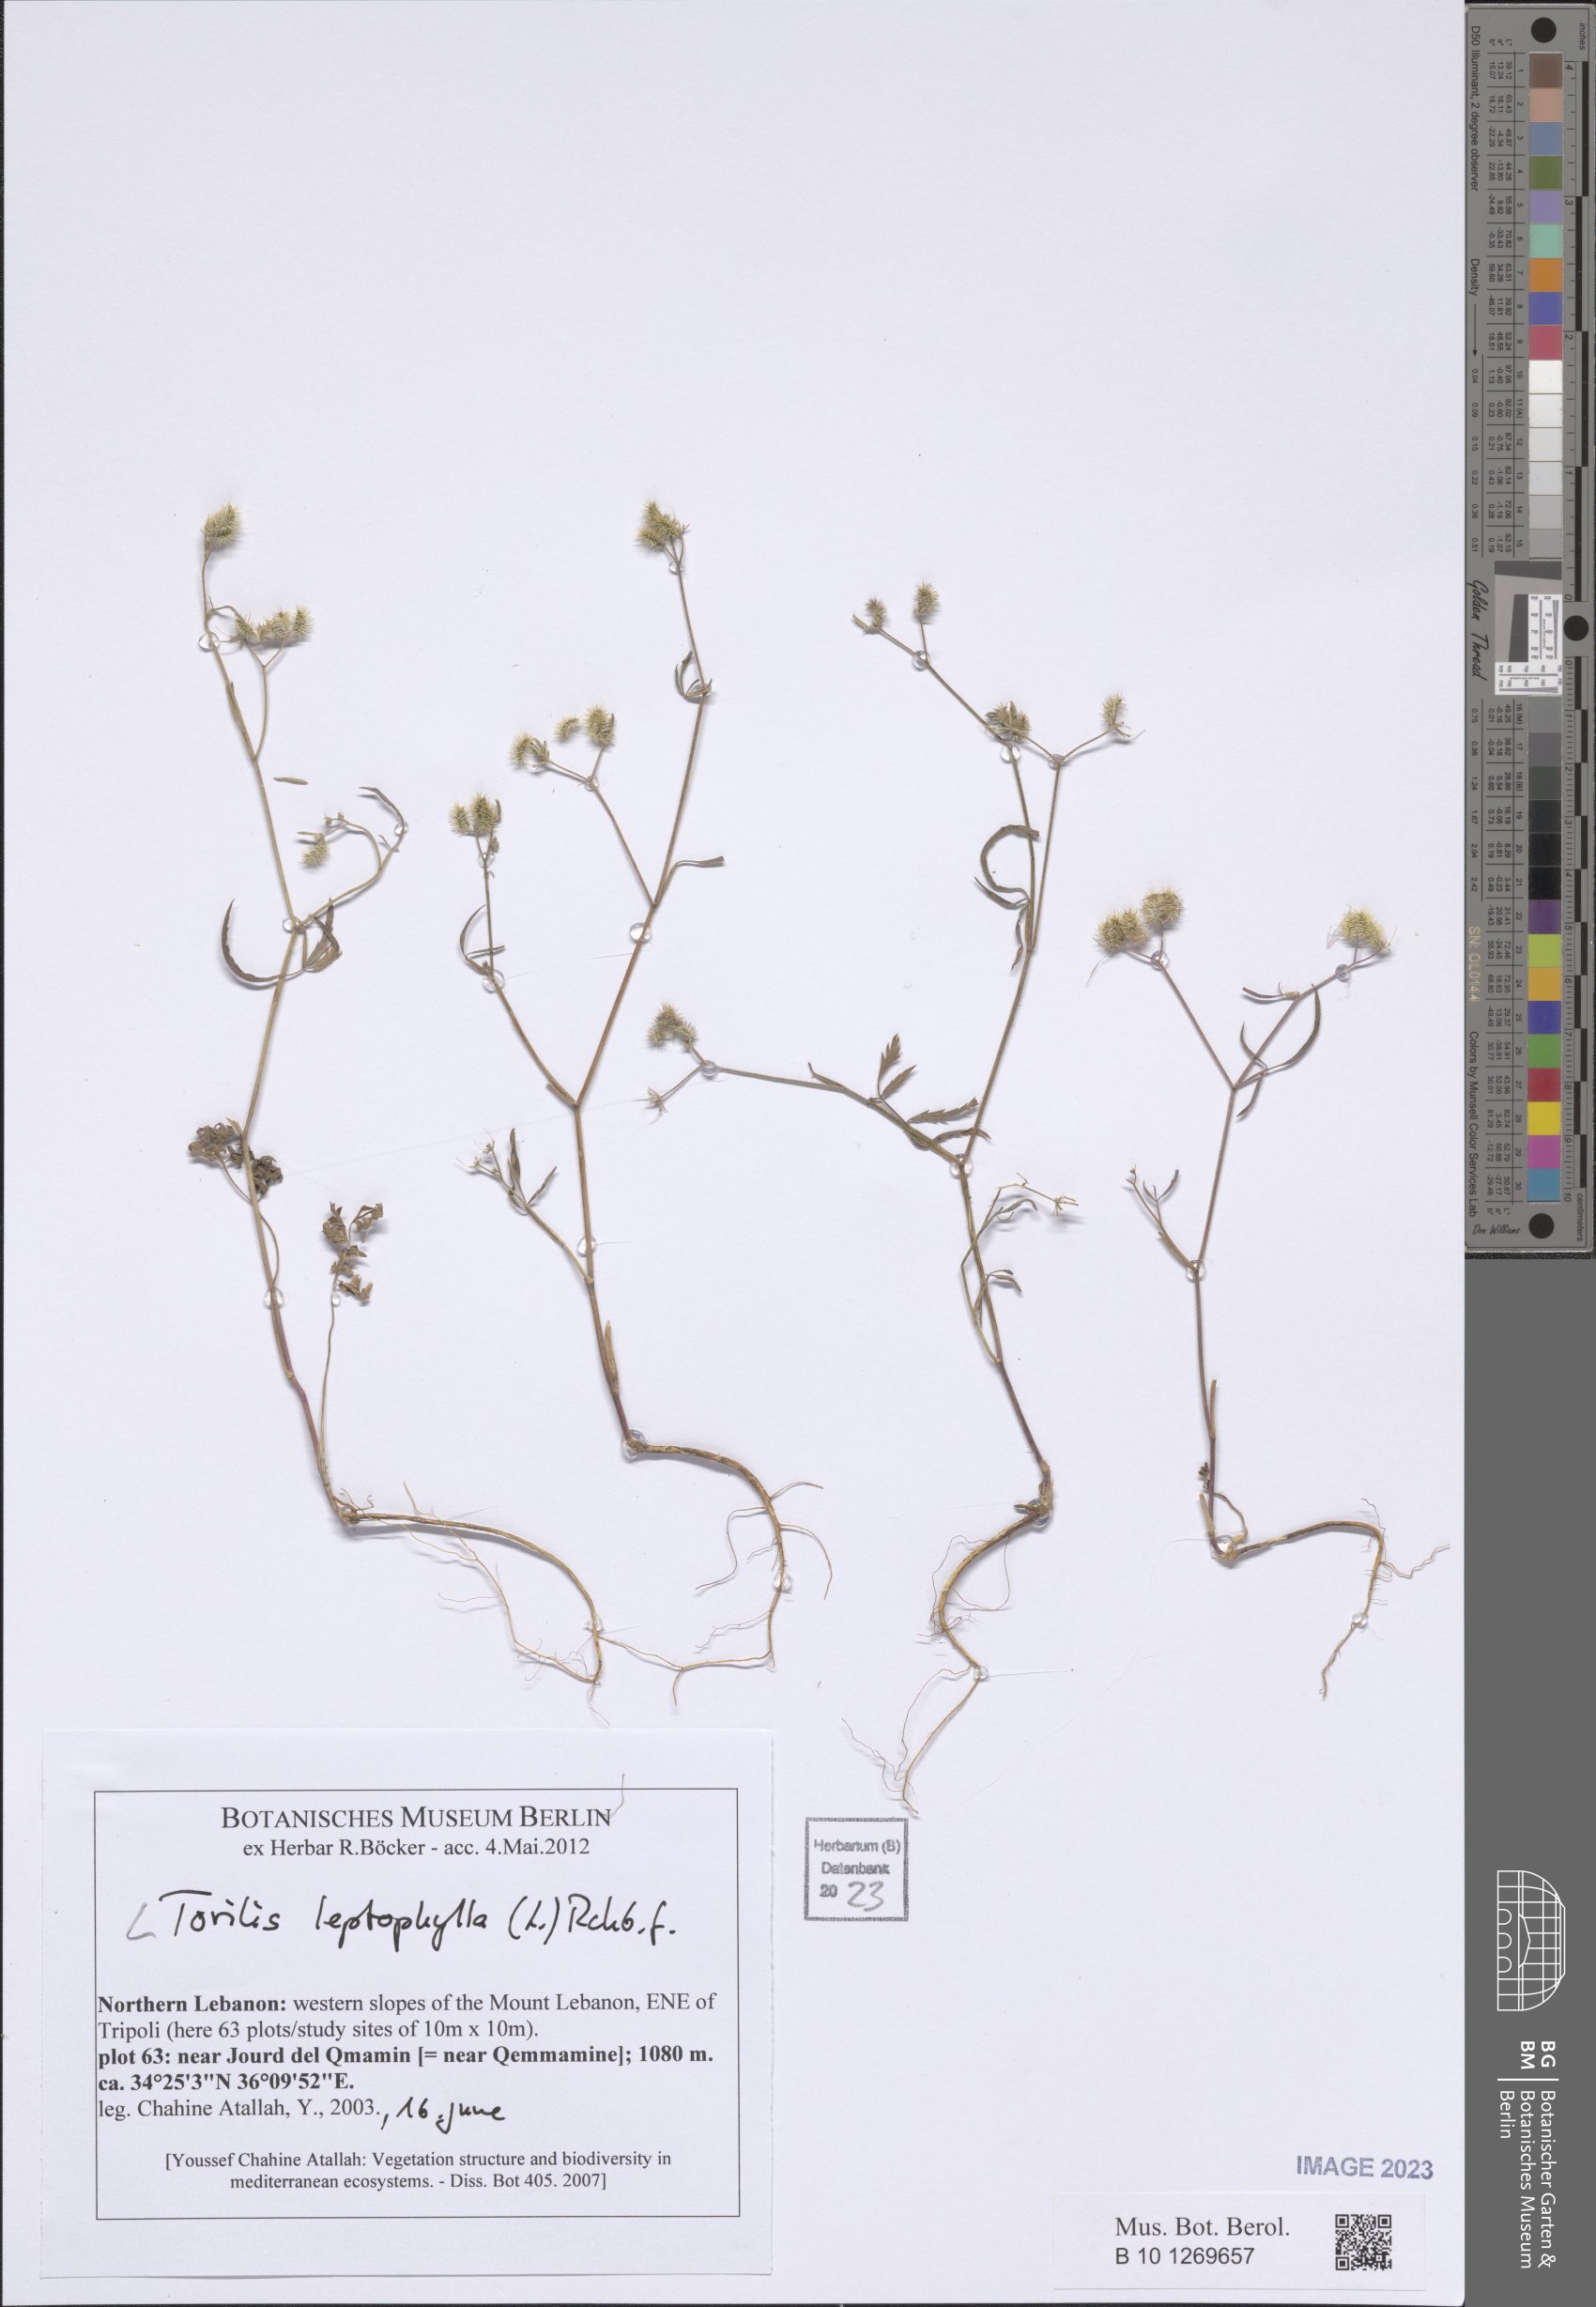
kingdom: Plantae
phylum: Tracheophyta
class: Magnoliopsida
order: Apiales
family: Apiaceae
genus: Torilis
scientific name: Torilis leptophylla
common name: Bristlefruit hedgeparsley
